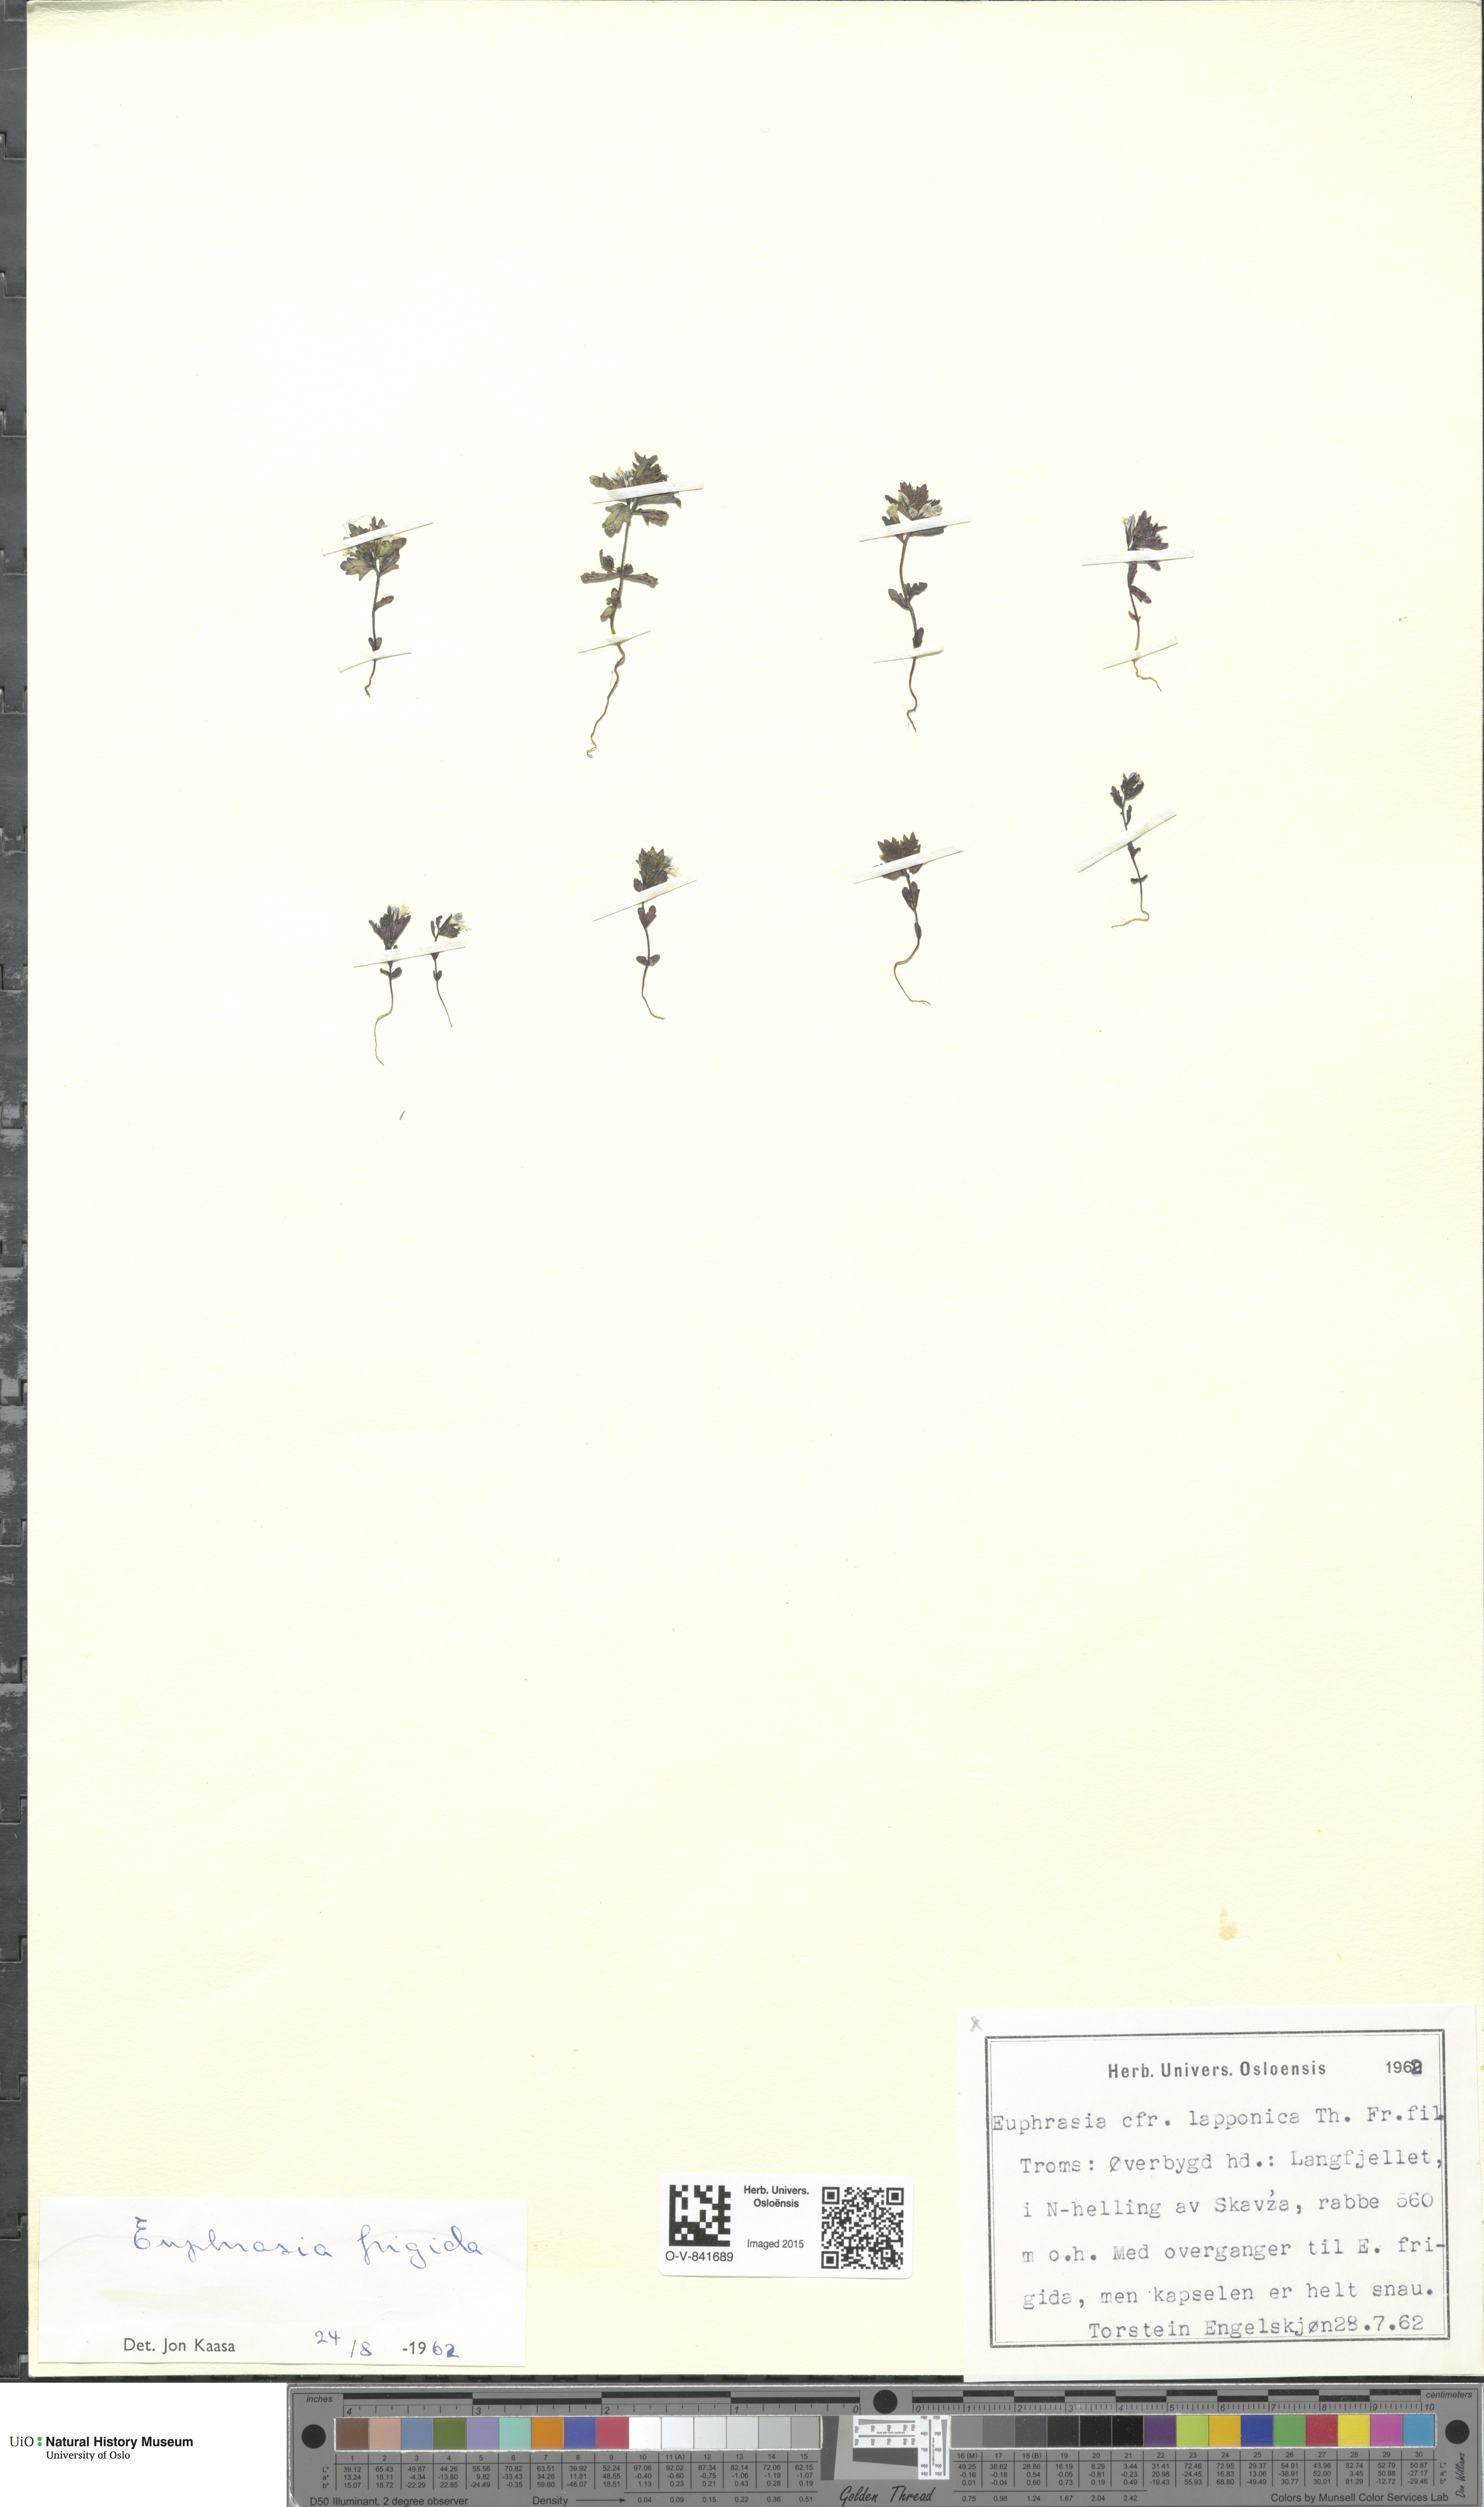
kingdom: Plantae
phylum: Tracheophyta
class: Magnoliopsida
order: Lamiales
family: Orobanchaceae
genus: Euphrasia
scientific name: Euphrasia wettsteinii
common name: Wettstein's eyebright
